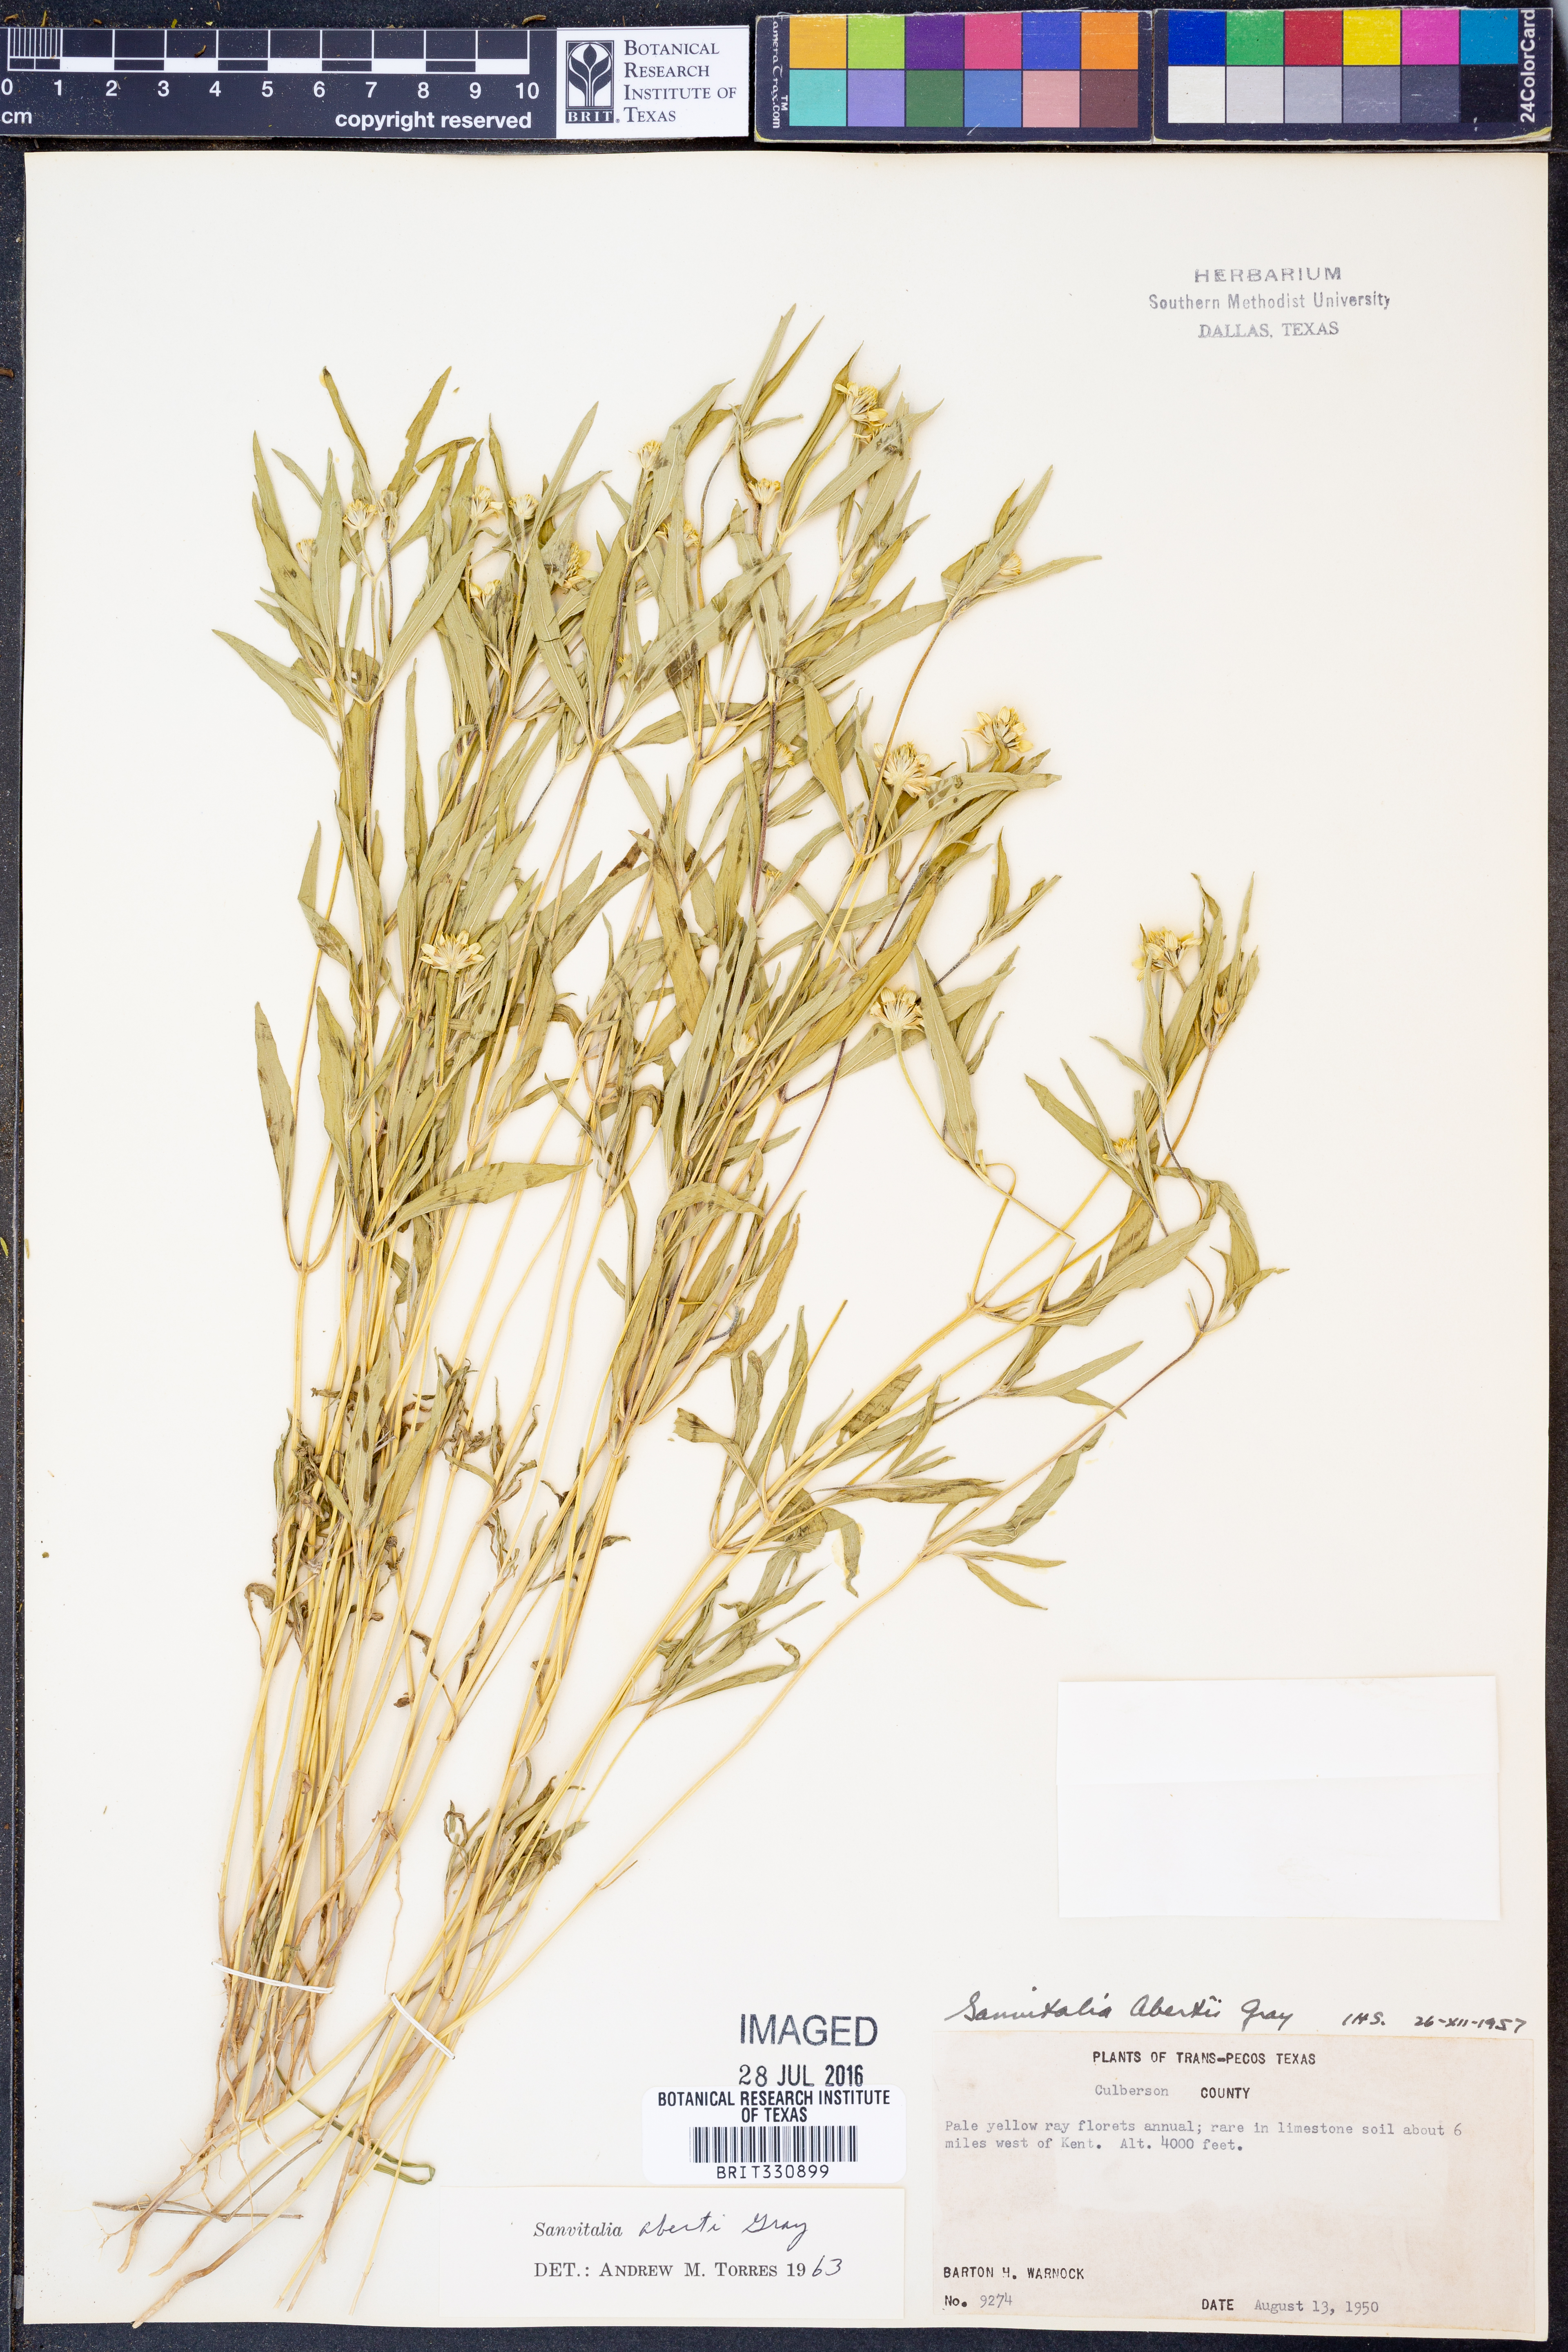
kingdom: Plantae
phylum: Tracheophyta
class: Magnoliopsida
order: Asterales
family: Asteraceae
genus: Sanvitalia
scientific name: Sanvitalia abertii
